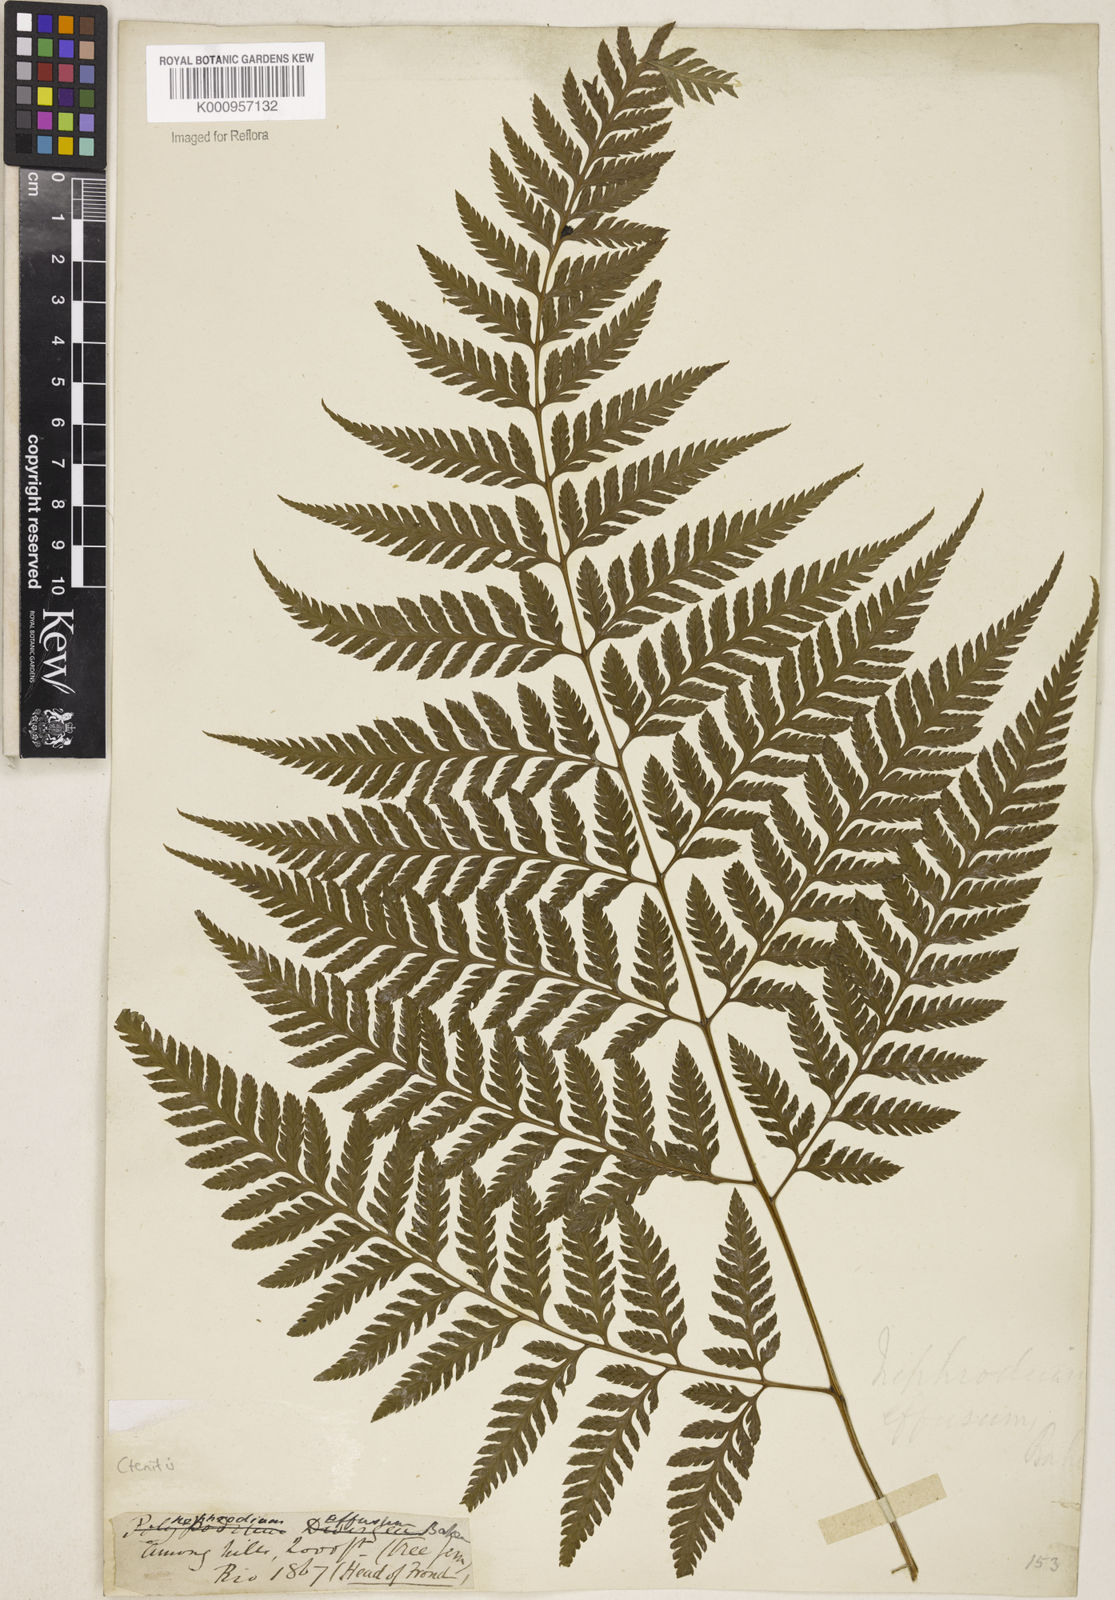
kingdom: Plantae
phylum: Tracheophyta
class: Polypodiopsida
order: Polypodiales
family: Dryopteridaceae
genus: Parapolystichum
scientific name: Parapolystichum effusum
